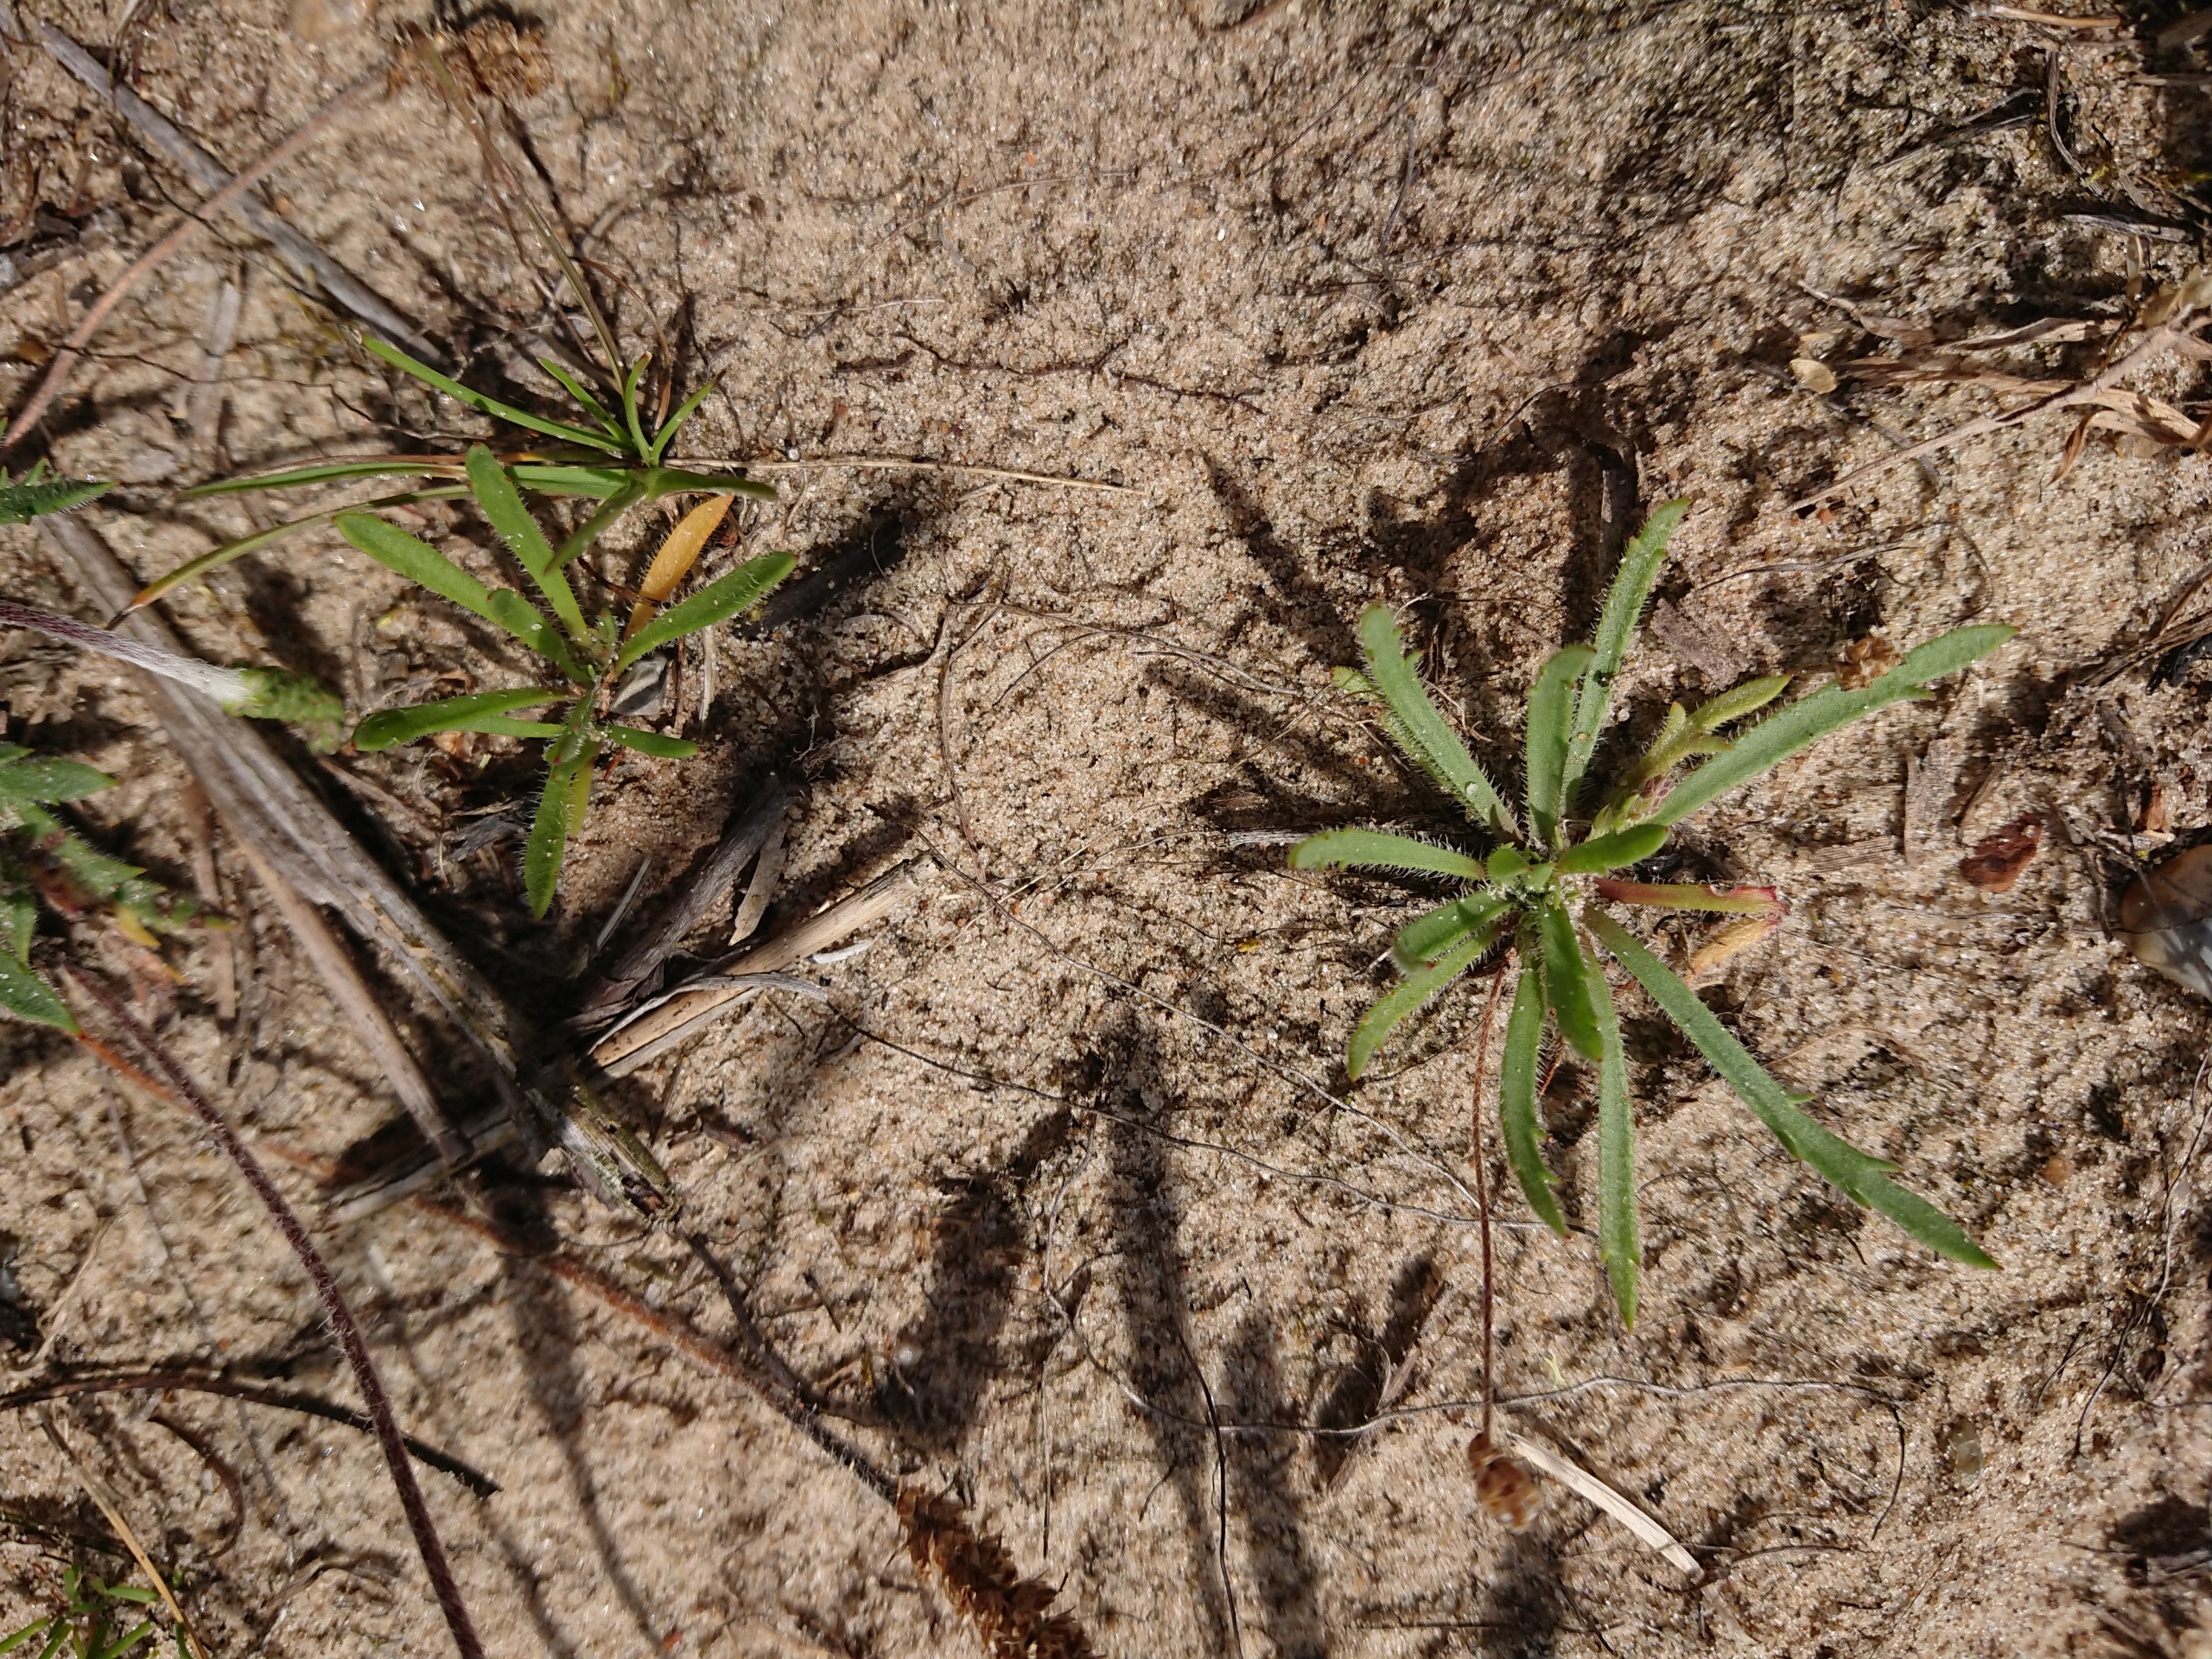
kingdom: Plantae
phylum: Tracheophyta
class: Magnoliopsida
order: Lamiales
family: Plantaginaceae
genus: Plantago
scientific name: Plantago coronopus
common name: Fliget vejbred
